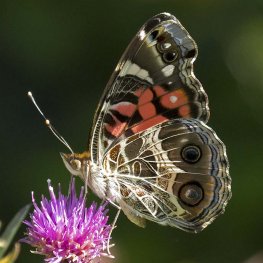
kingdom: Animalia
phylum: Arthropoda
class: Insecta
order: Lepidoptera
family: Nymphalidae
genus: Vanessa
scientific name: Vanessa virginiensis
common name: American Lady
